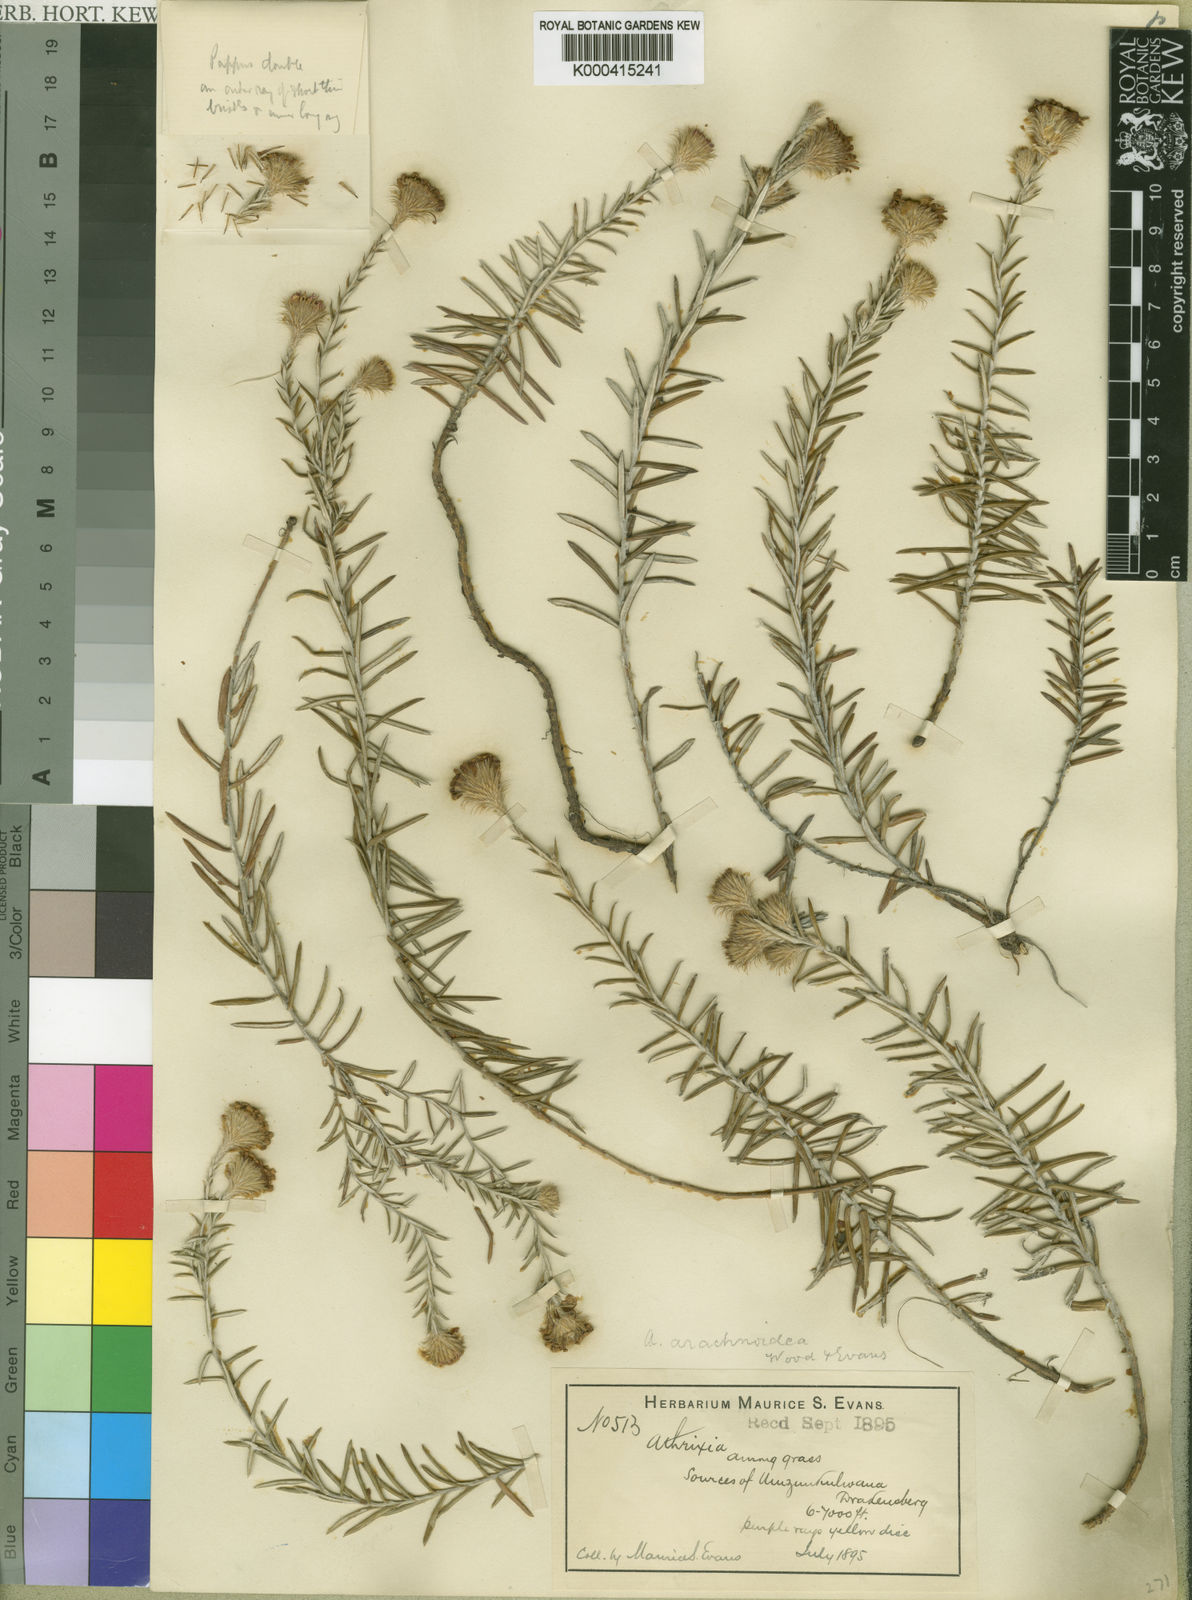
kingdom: Plantae
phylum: Tracheophyta
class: Magnoliopsida
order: Asterales
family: Asteraceae
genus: Athrixia
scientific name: Athrixia arachnoidea
